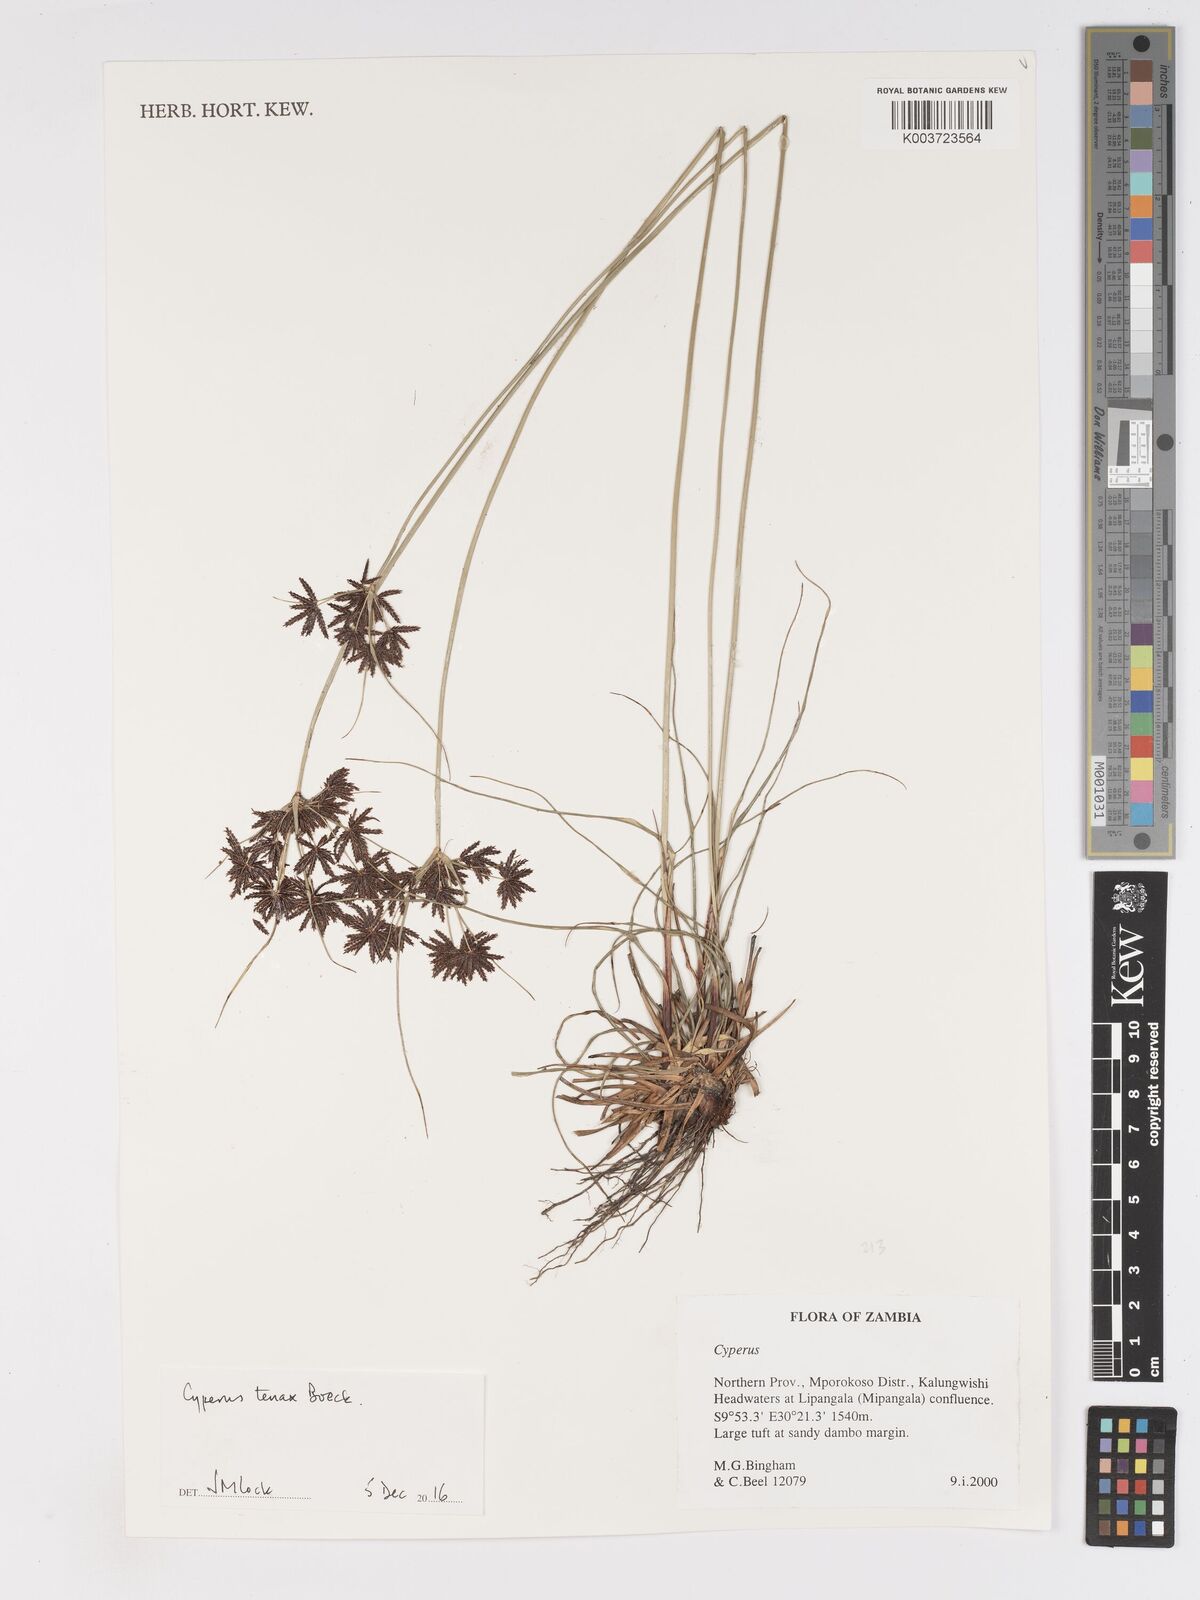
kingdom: Plantae
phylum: Tracheophyta
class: Liliopsida
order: Poales
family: Cyperaceae
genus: Cyperus
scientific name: Cyperus tenax
